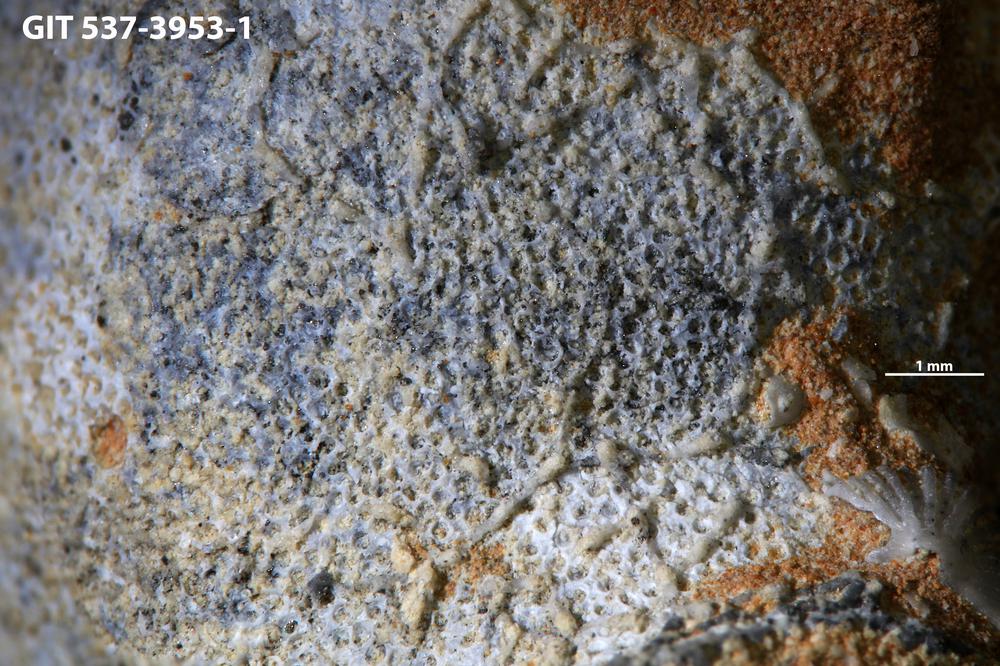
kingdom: Animalia
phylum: Bryozoa
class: Stenolaemata
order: Cyclostomatida
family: Corynotrypidae
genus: Corynotrypa
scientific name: Corynotrypa
